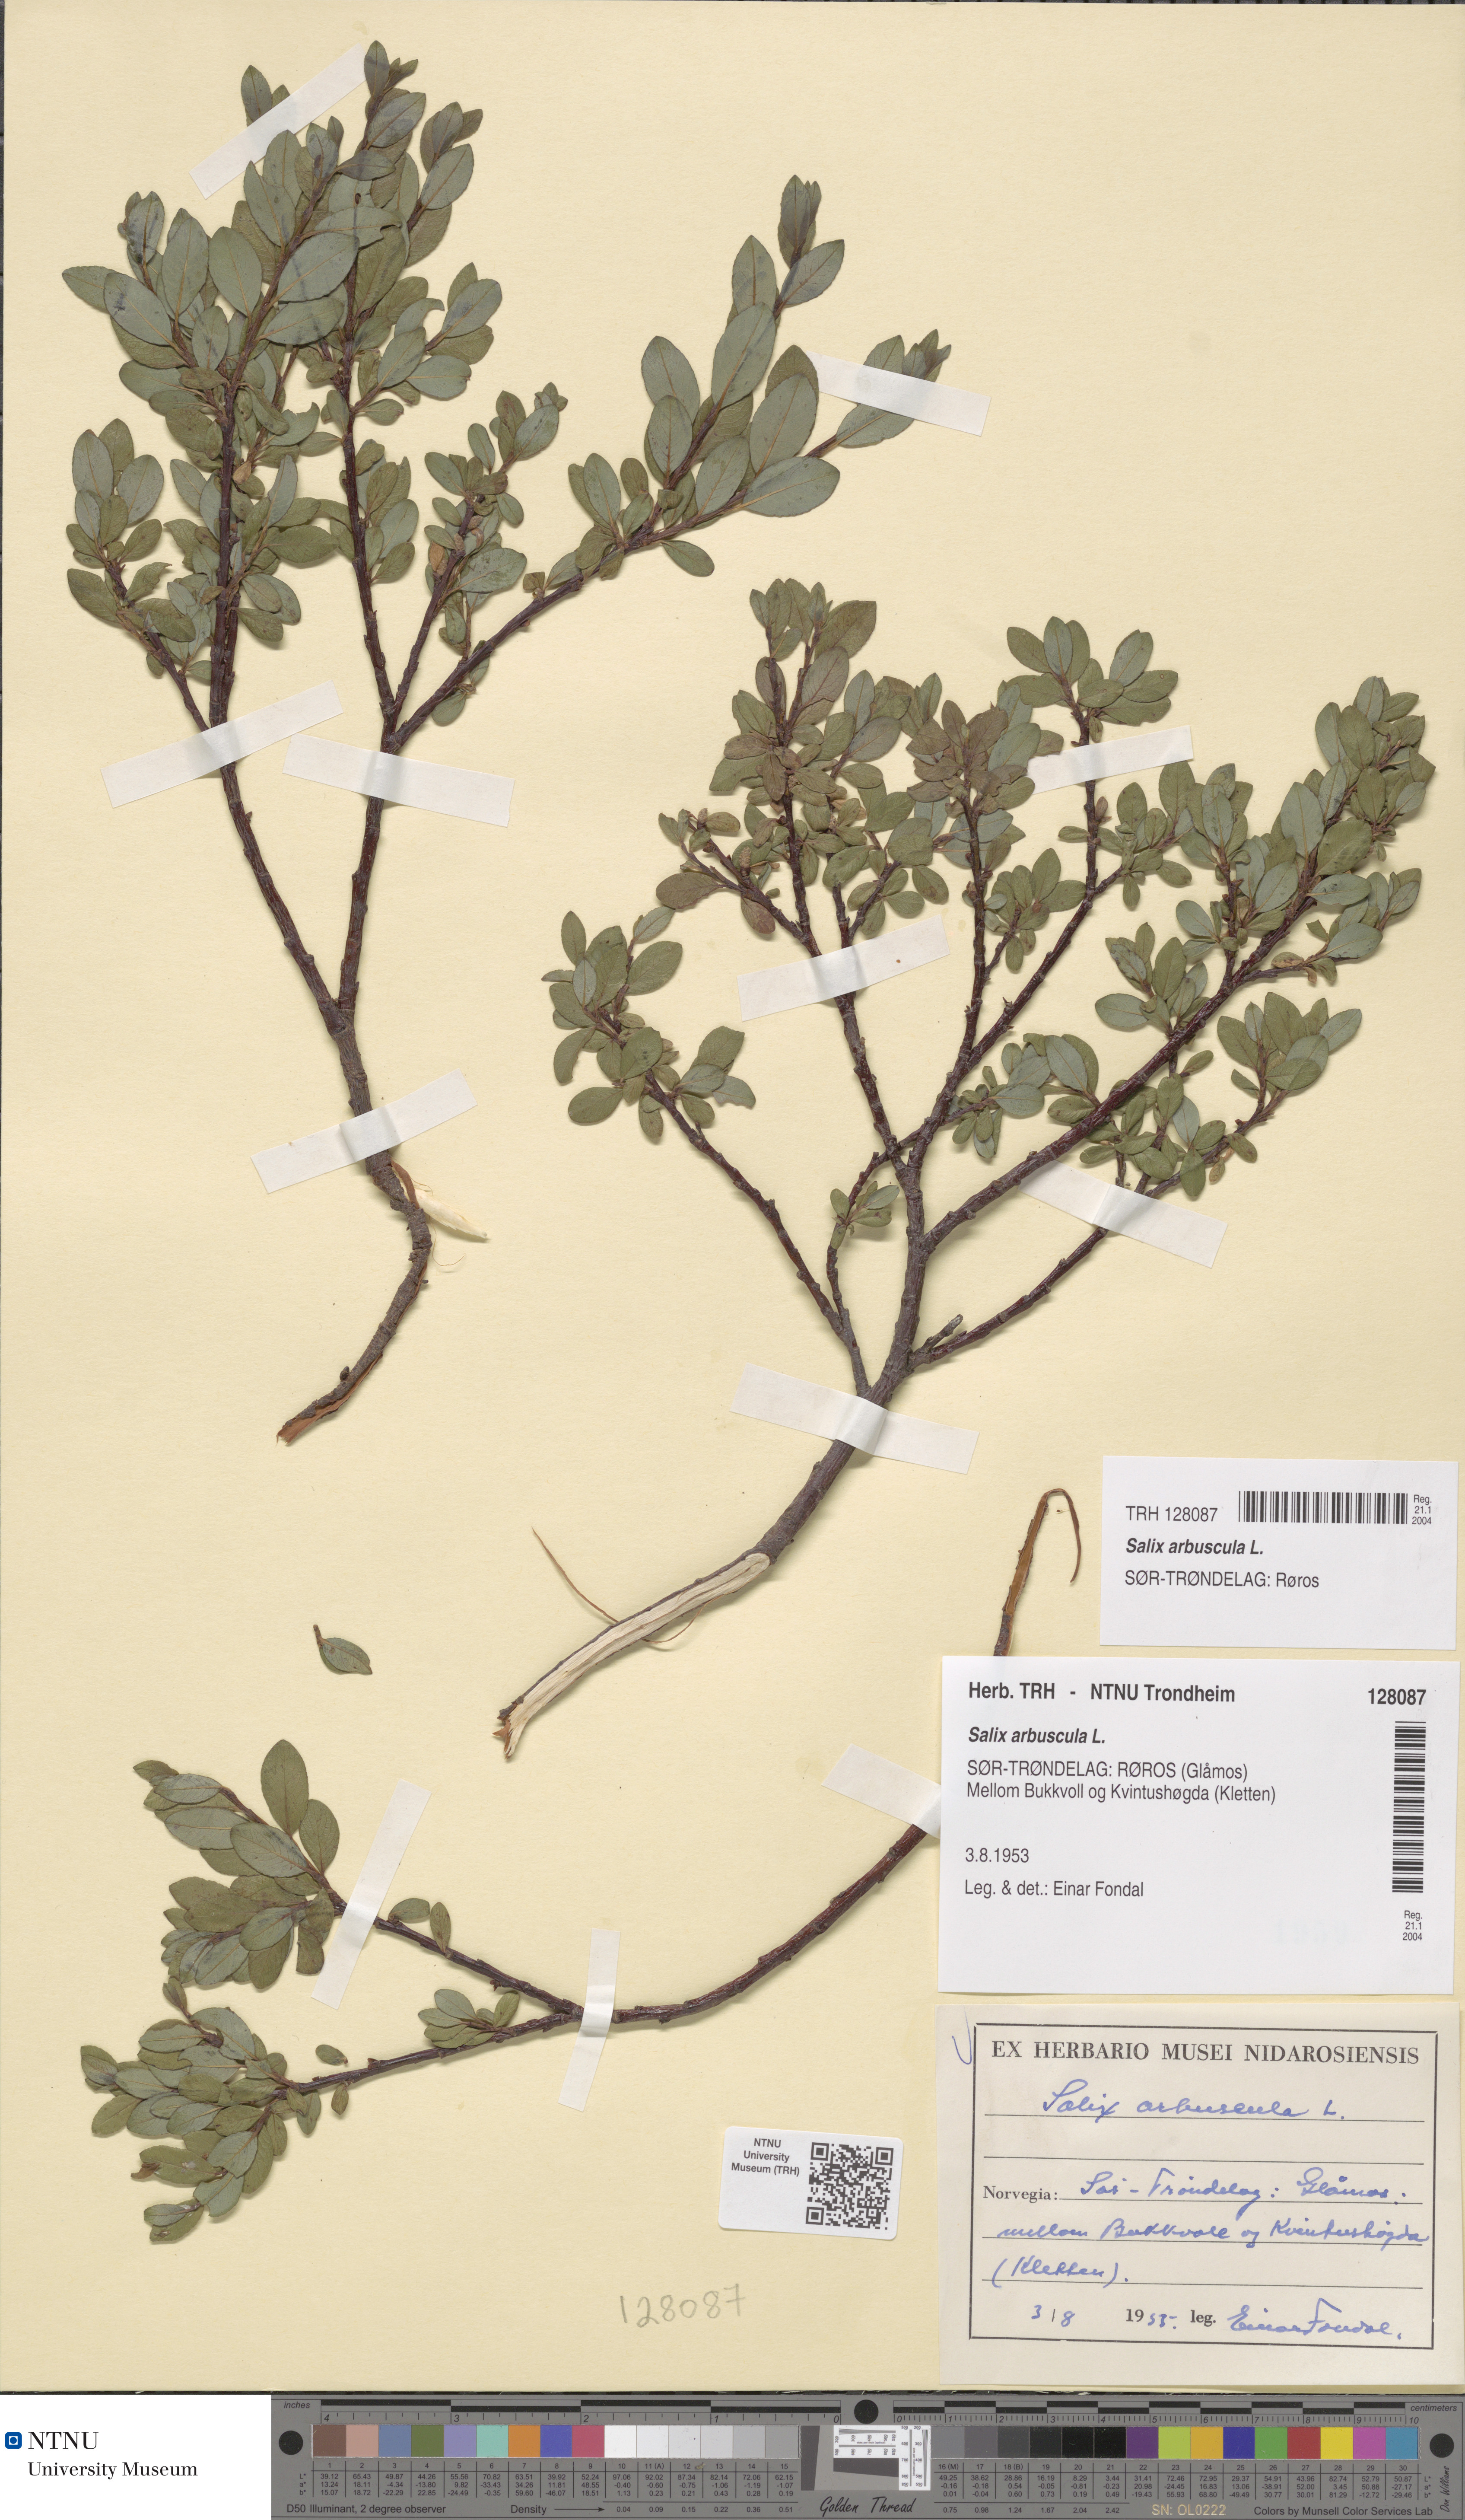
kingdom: Plantae
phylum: Tracheophyta
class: Magnoliopsida
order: Malpighiales
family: Salicaceae
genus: Salix
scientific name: Salix arbuscula
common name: Mountain willow
